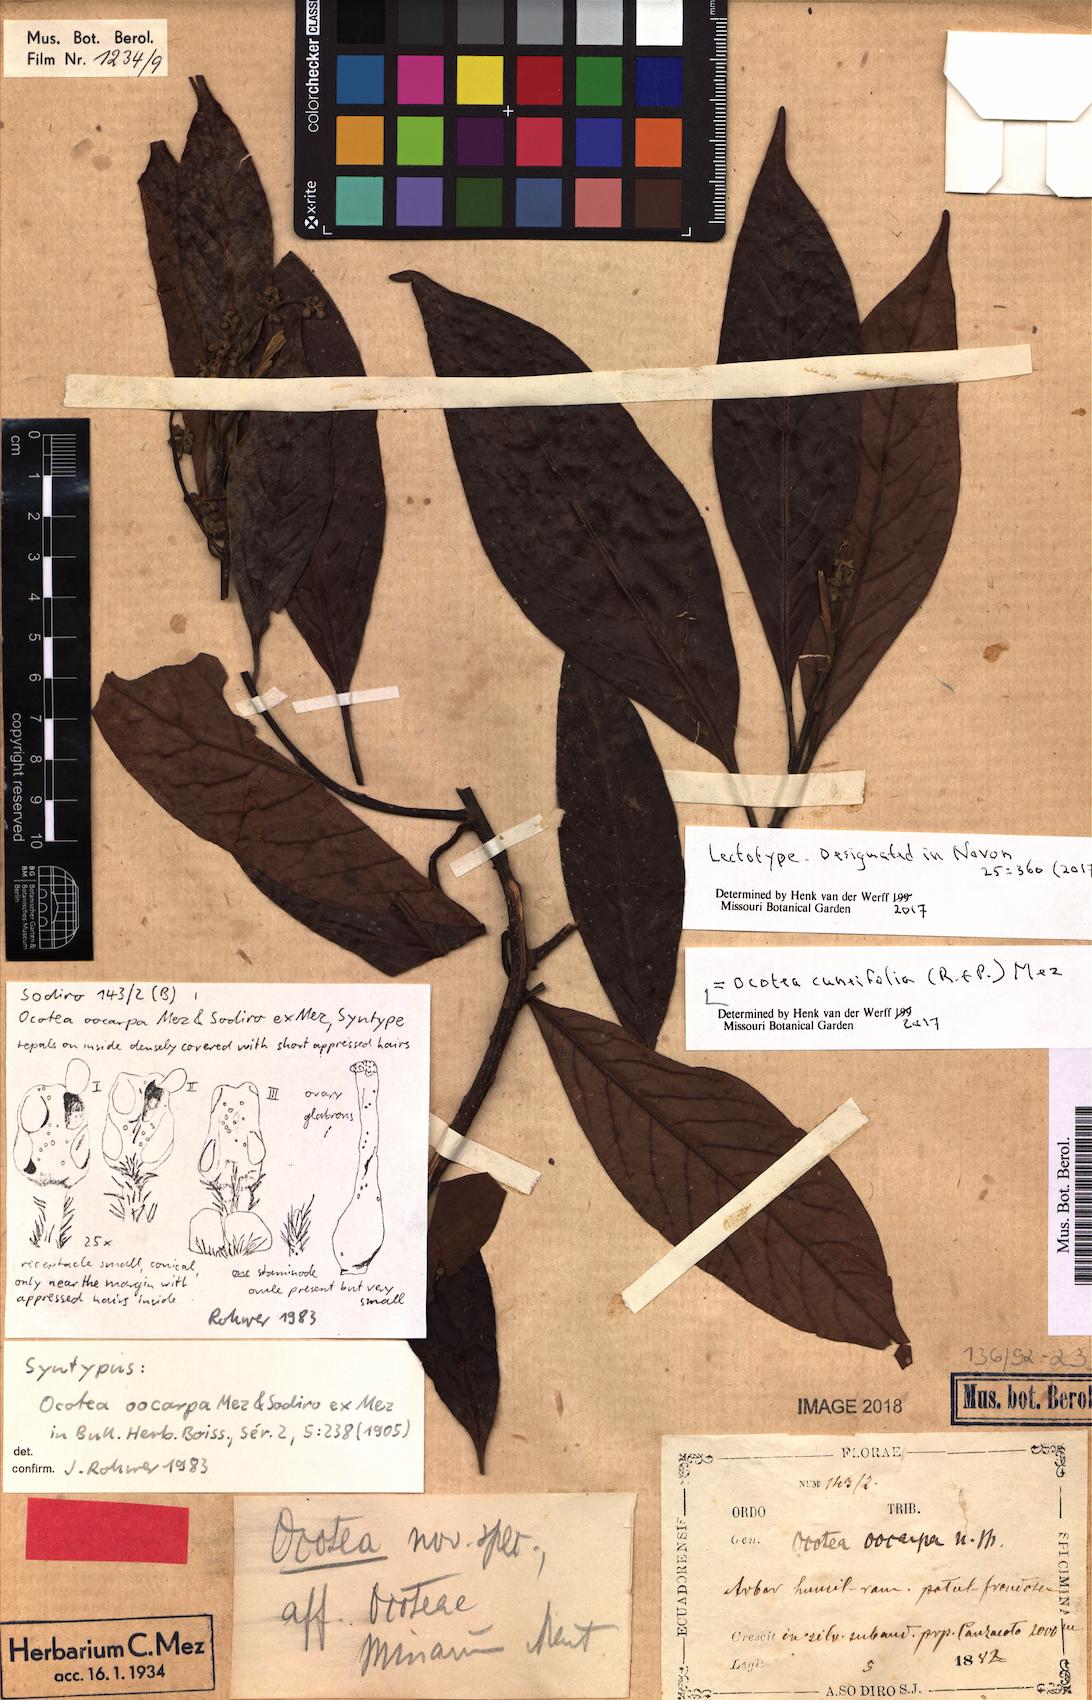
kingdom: Plantae
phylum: Tracheophyta
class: Magnoliopsida
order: Laurales
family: Lauraceae
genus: Ocotea
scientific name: Ocotea cuneifolia
